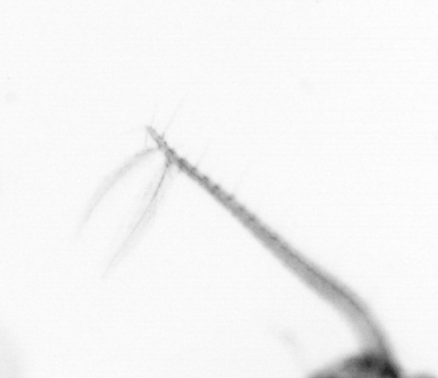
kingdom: Chromista
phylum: Ochrophyta
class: Bacillariophyceae
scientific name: Bacillariophyceae
